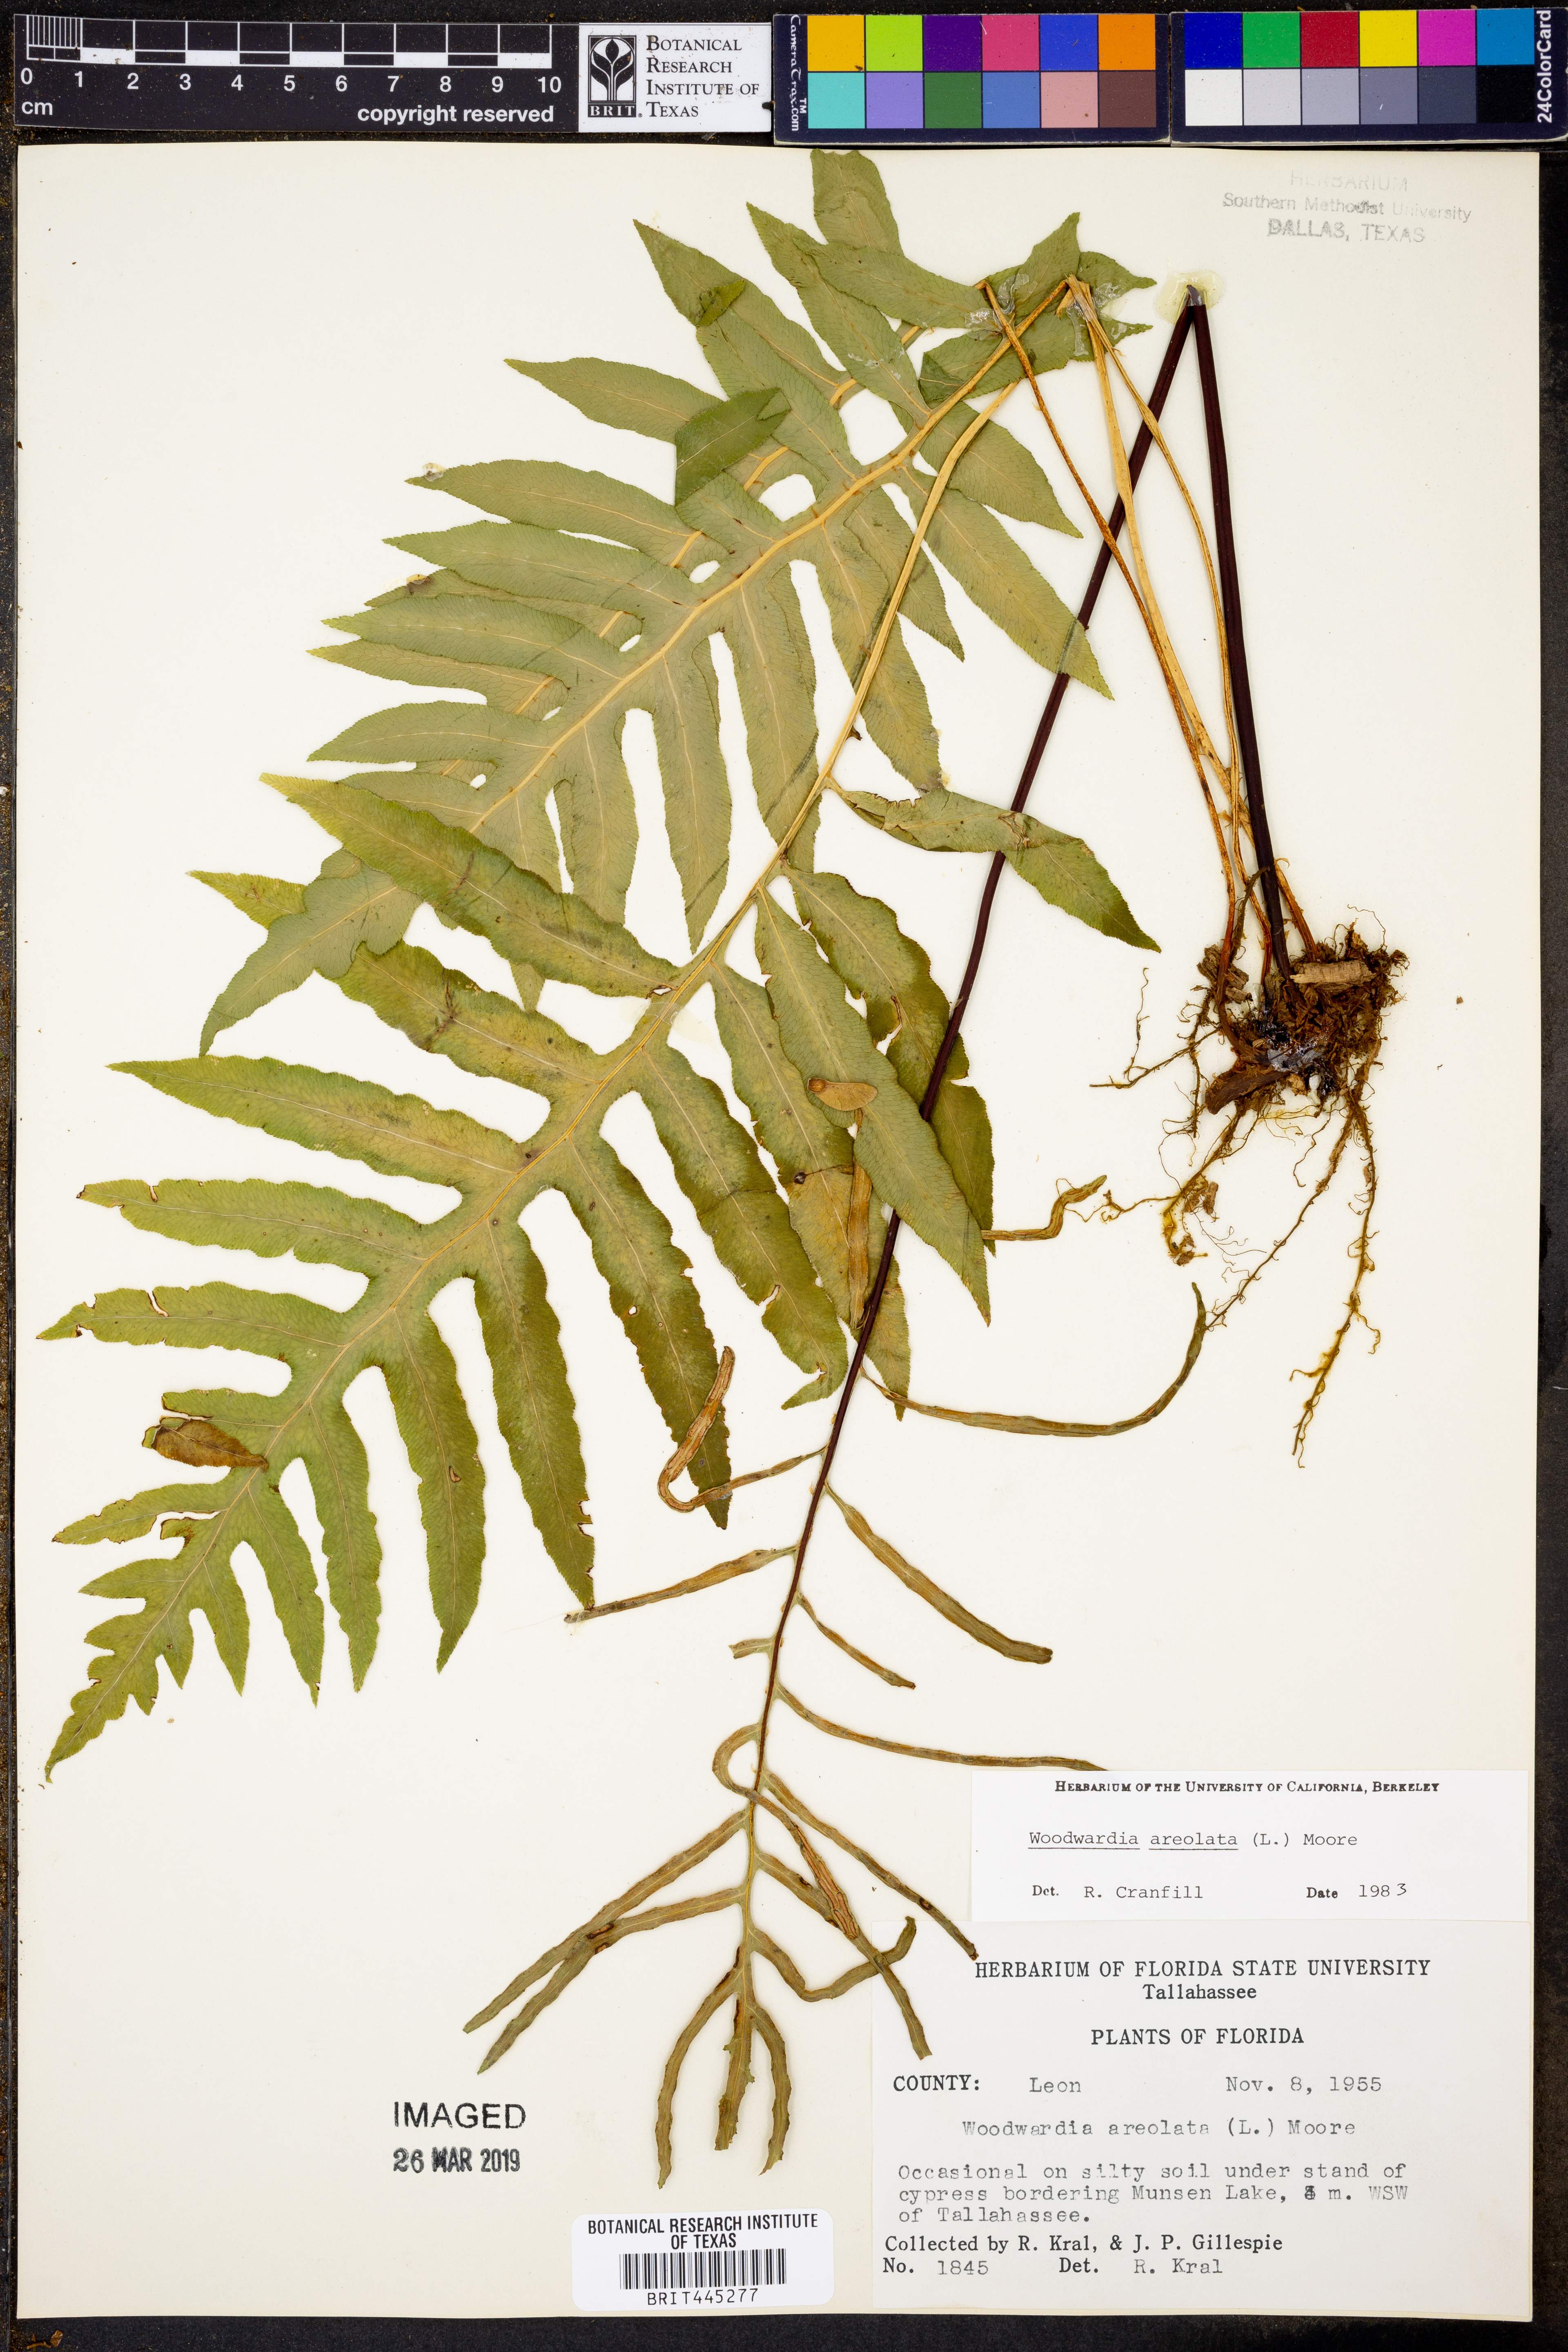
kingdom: Plantae
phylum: Tracheophyta
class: Polypodiopsida
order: Polypodiales
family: Blechnaceae
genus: Lorinseria
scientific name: Lorinseria areolata
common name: Dwarf chain fern
